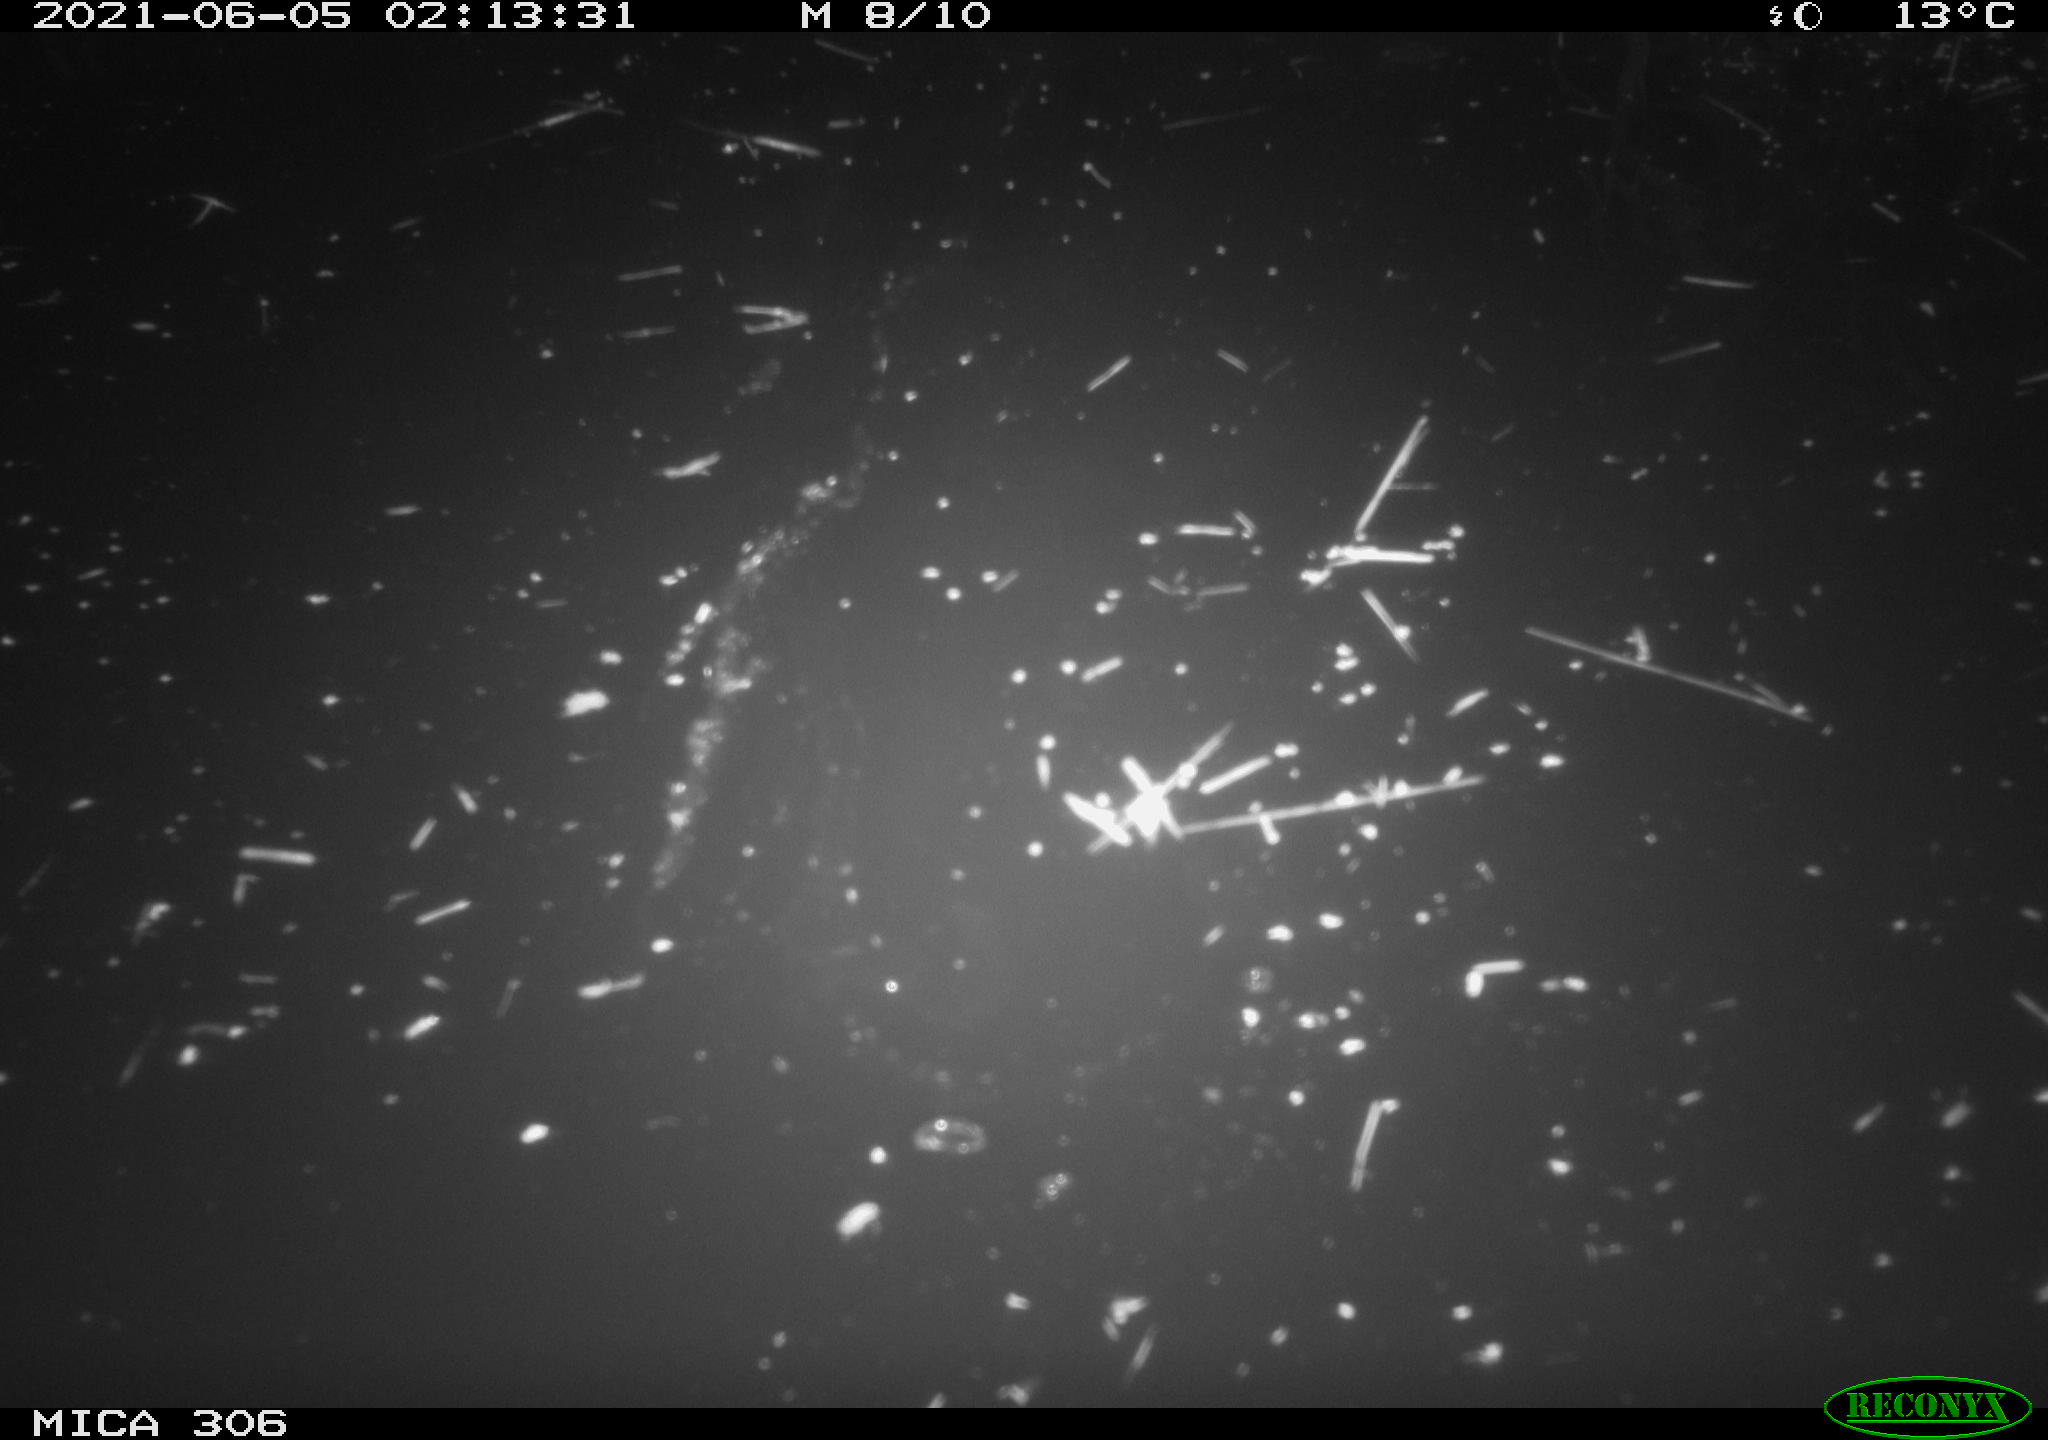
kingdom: Animalia
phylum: Chordata
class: Aves
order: Anseriformes
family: Anatidae
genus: Anas
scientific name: Anas platyrhynchos
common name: Mallard
